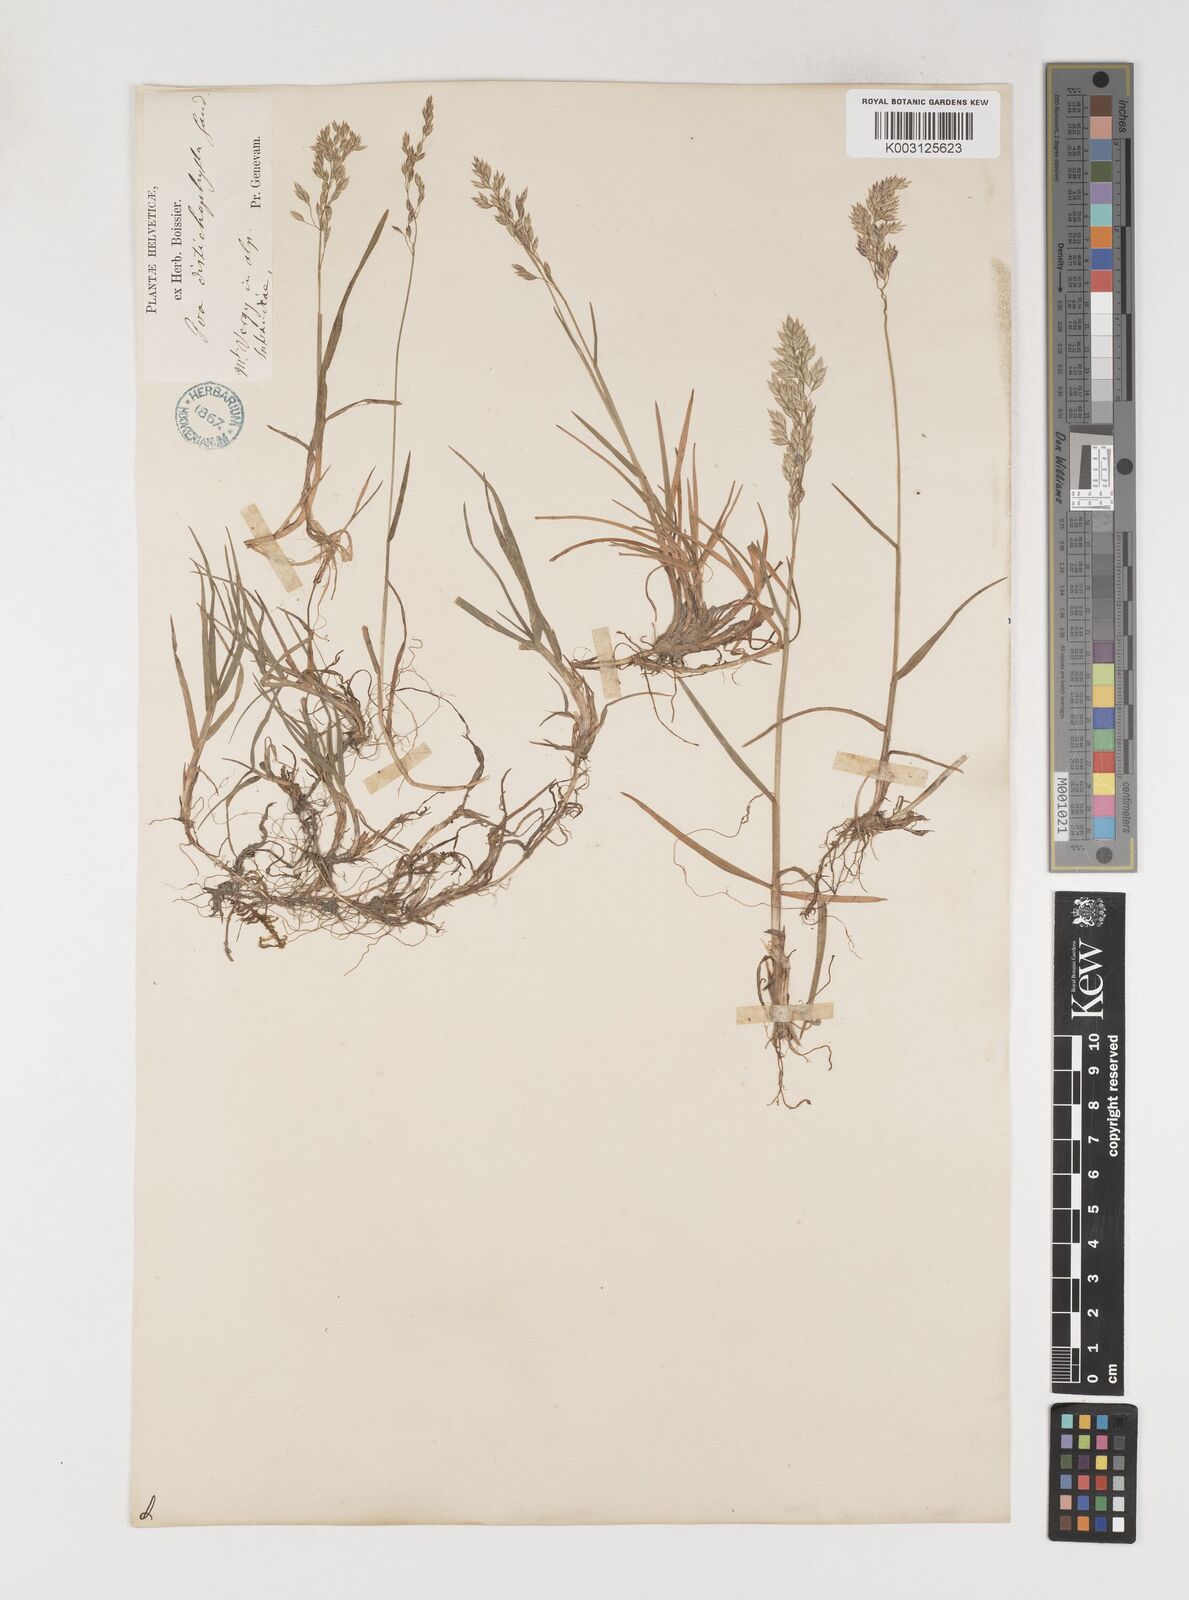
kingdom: Plantae
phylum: Tracheophyta
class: Liliopsida
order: Poales
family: Poaceae
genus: Poa
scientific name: Poa cenisia
